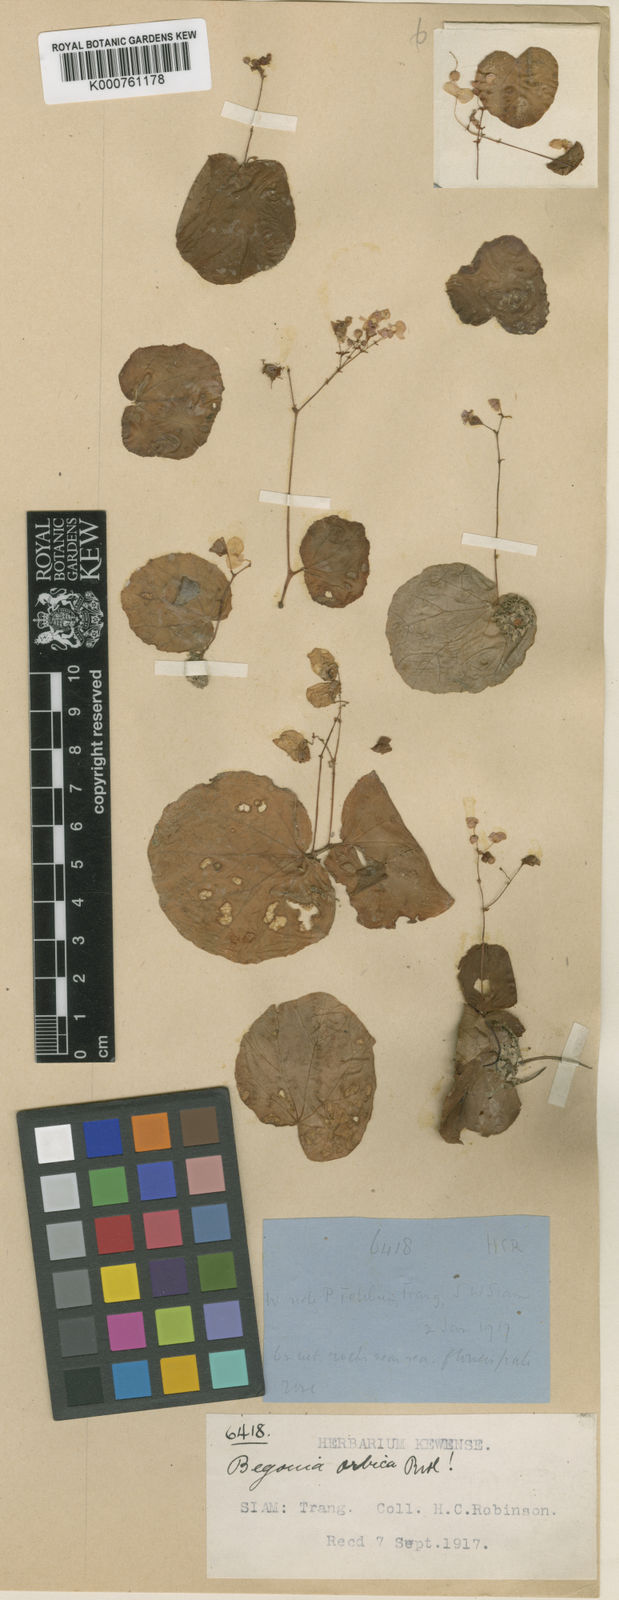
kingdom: Plantae
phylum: Tracheophyta
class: Magnoliopsida
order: Cucurbitales
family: Begoniaceae
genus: Begonia
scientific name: Begonia
